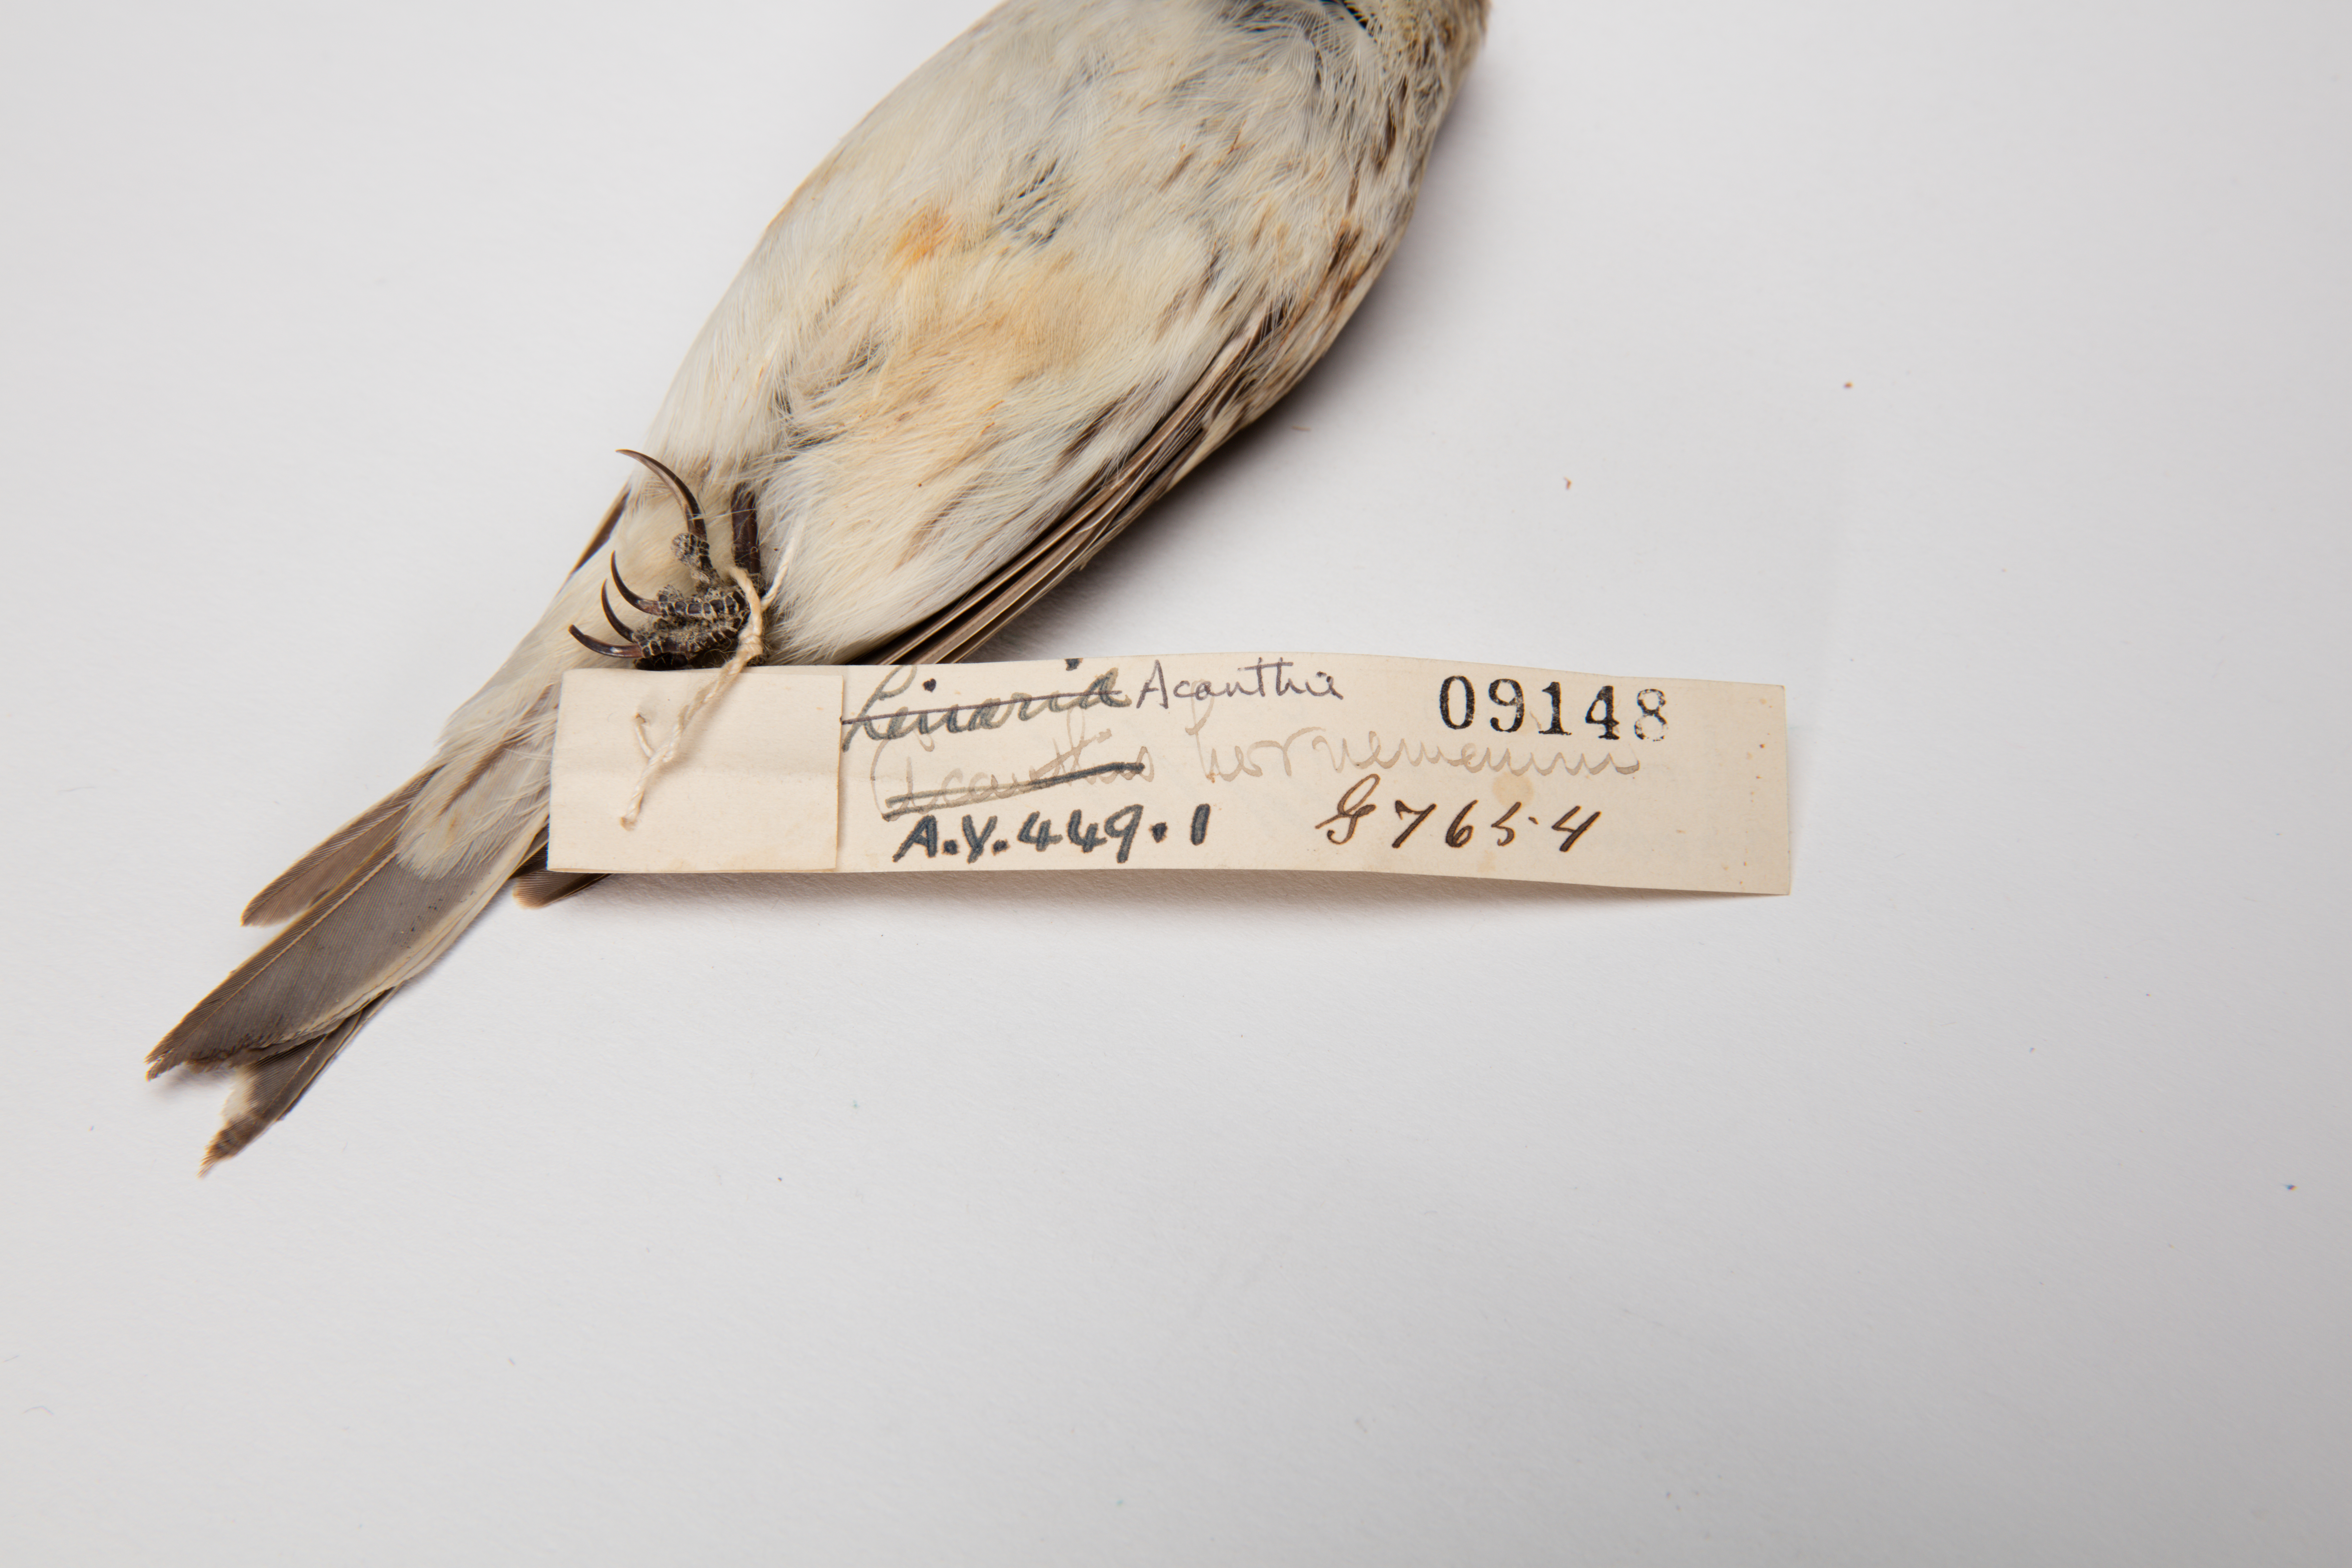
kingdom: Animalia
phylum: Chordata
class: Aves
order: Passeriformes
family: Fringillidae
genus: Acanthis
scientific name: Acanthis hornemanni
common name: Arctic redpoll
